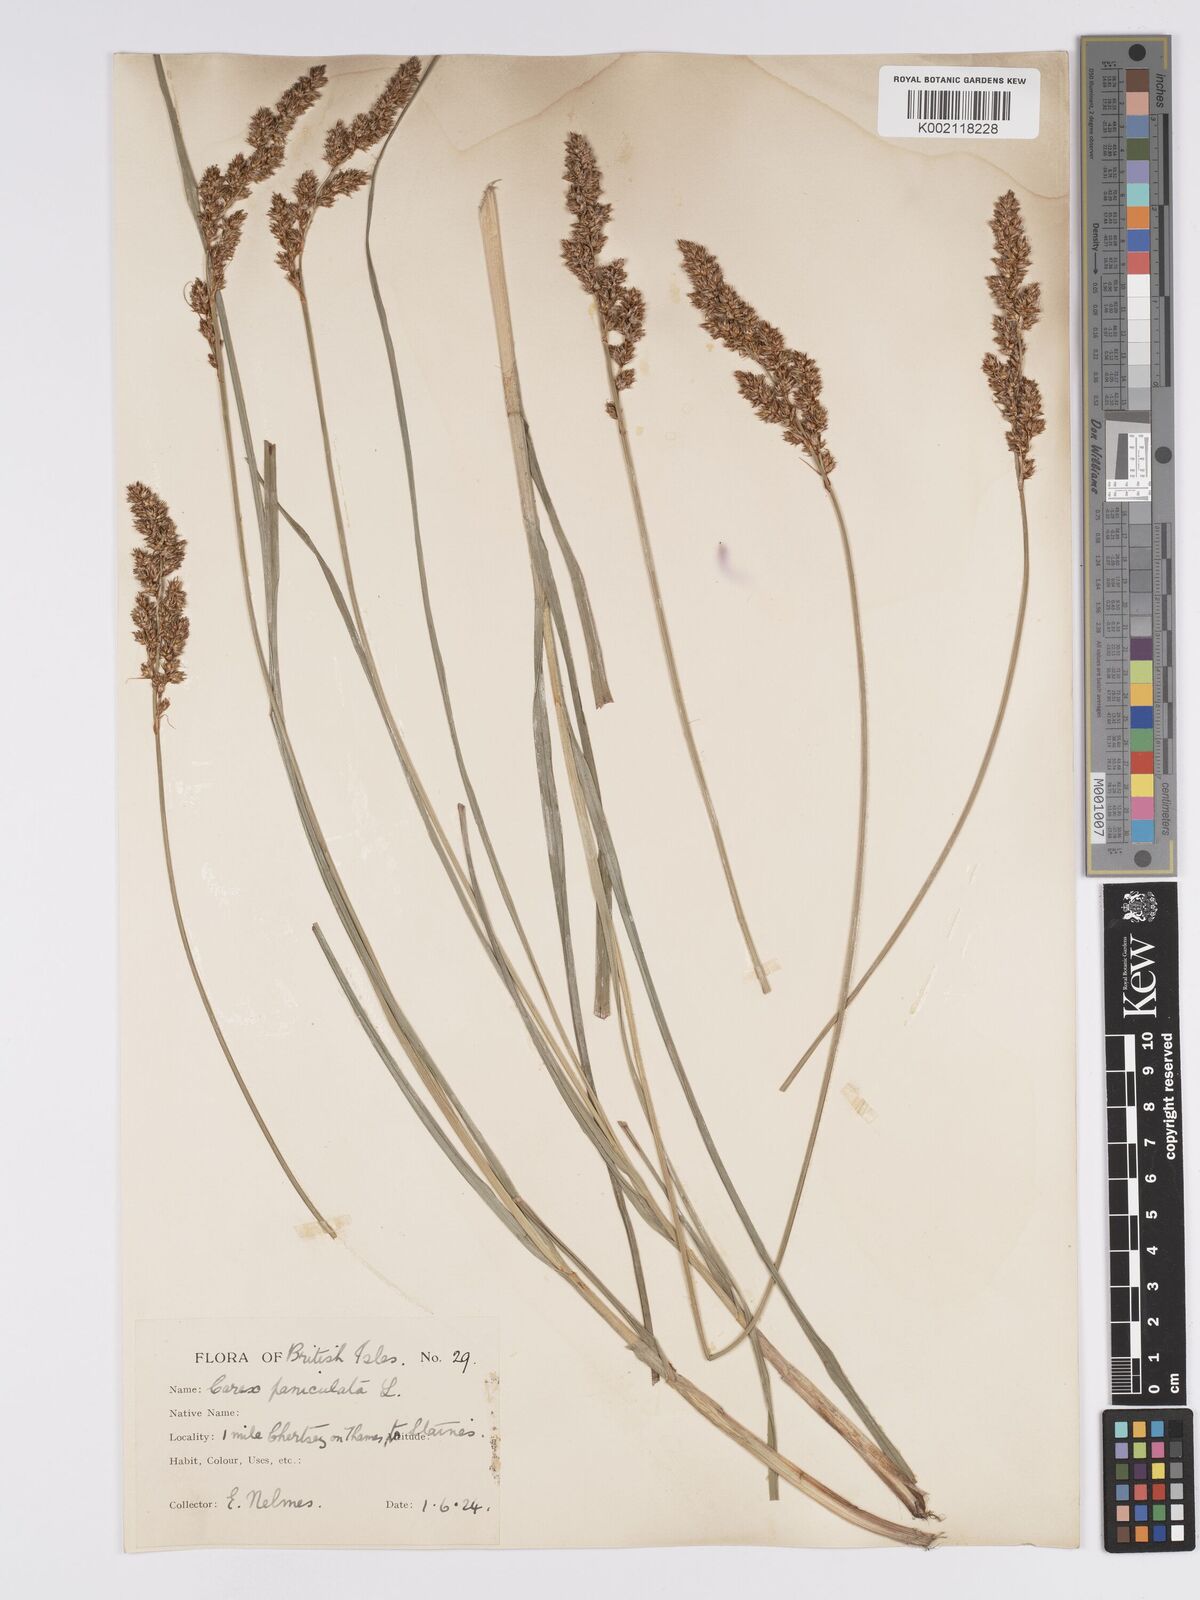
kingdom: Plantae
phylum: Tracheophyta
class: Liliopsida
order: Poales
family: Cyperaceae
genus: Carex
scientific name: Carex paniculata
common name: Greater tussock-sedge
